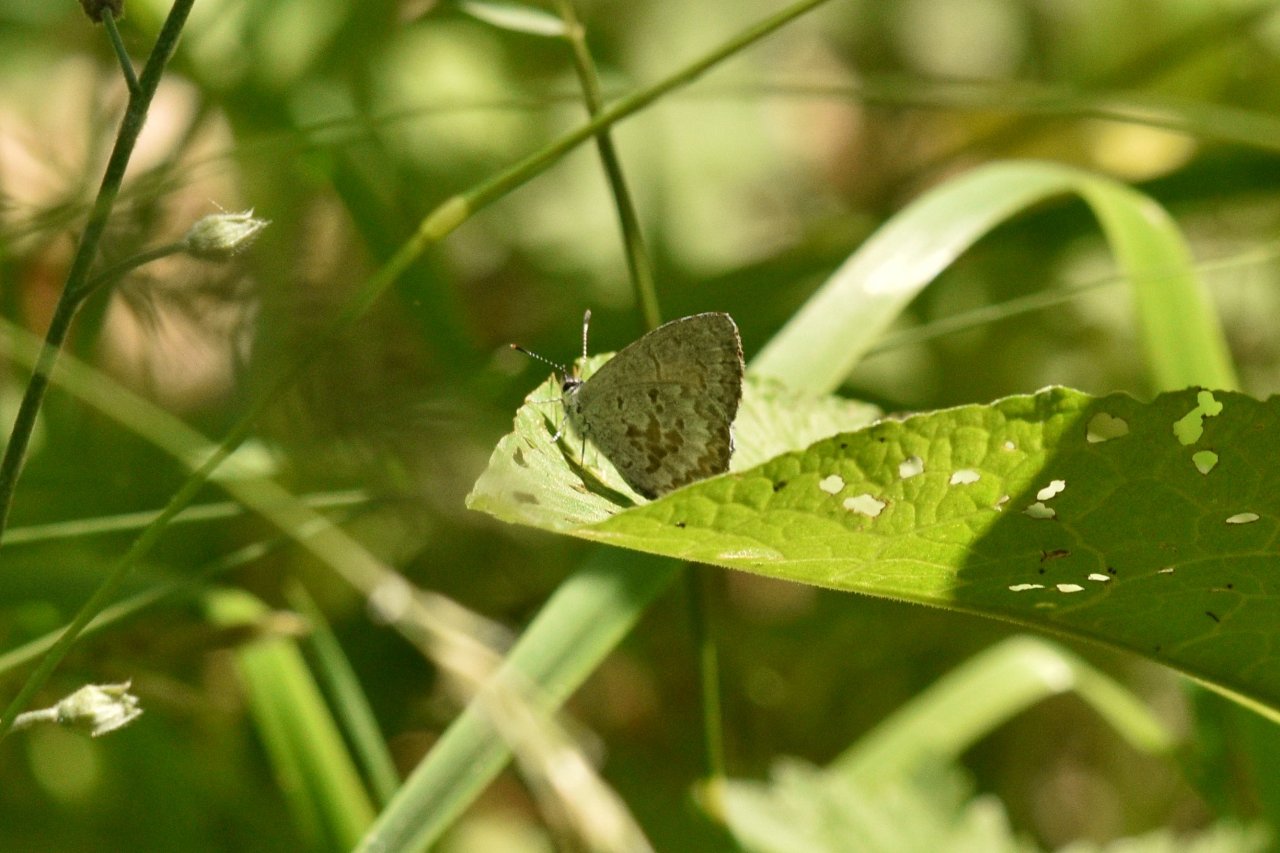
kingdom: Animalia
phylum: Arthropoda
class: Insecta
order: Lepidoptera
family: Lycaenidae
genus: Celastrina
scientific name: Celastrina lucia
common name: Northern Spring Azure
